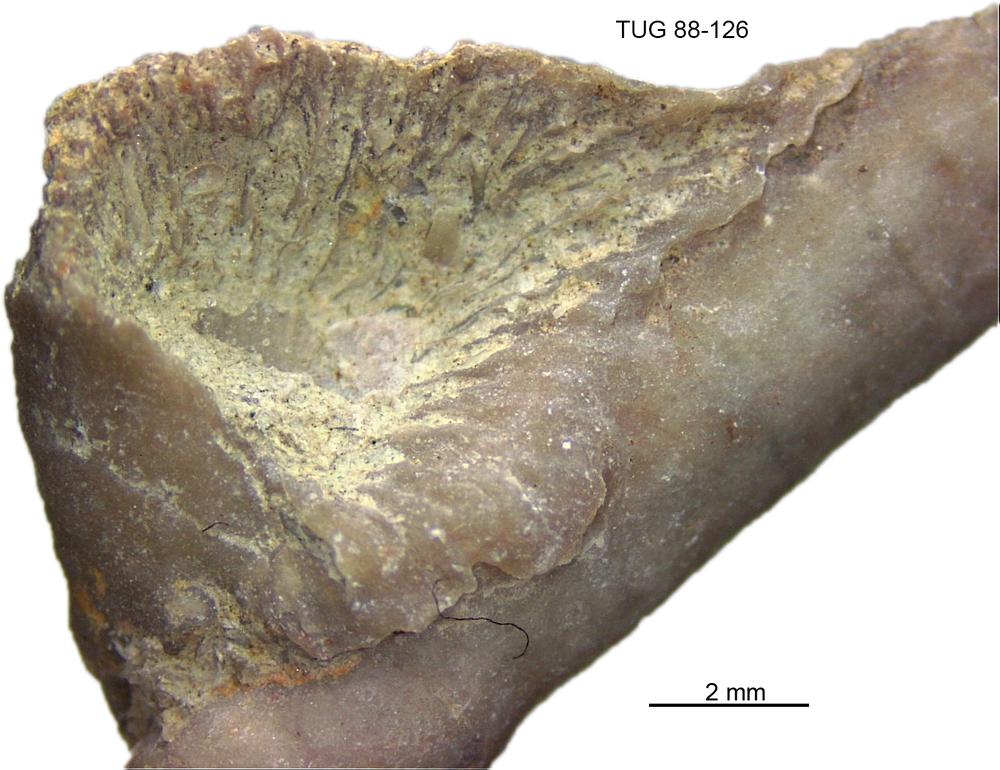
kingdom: Animalia
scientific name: Animalia
